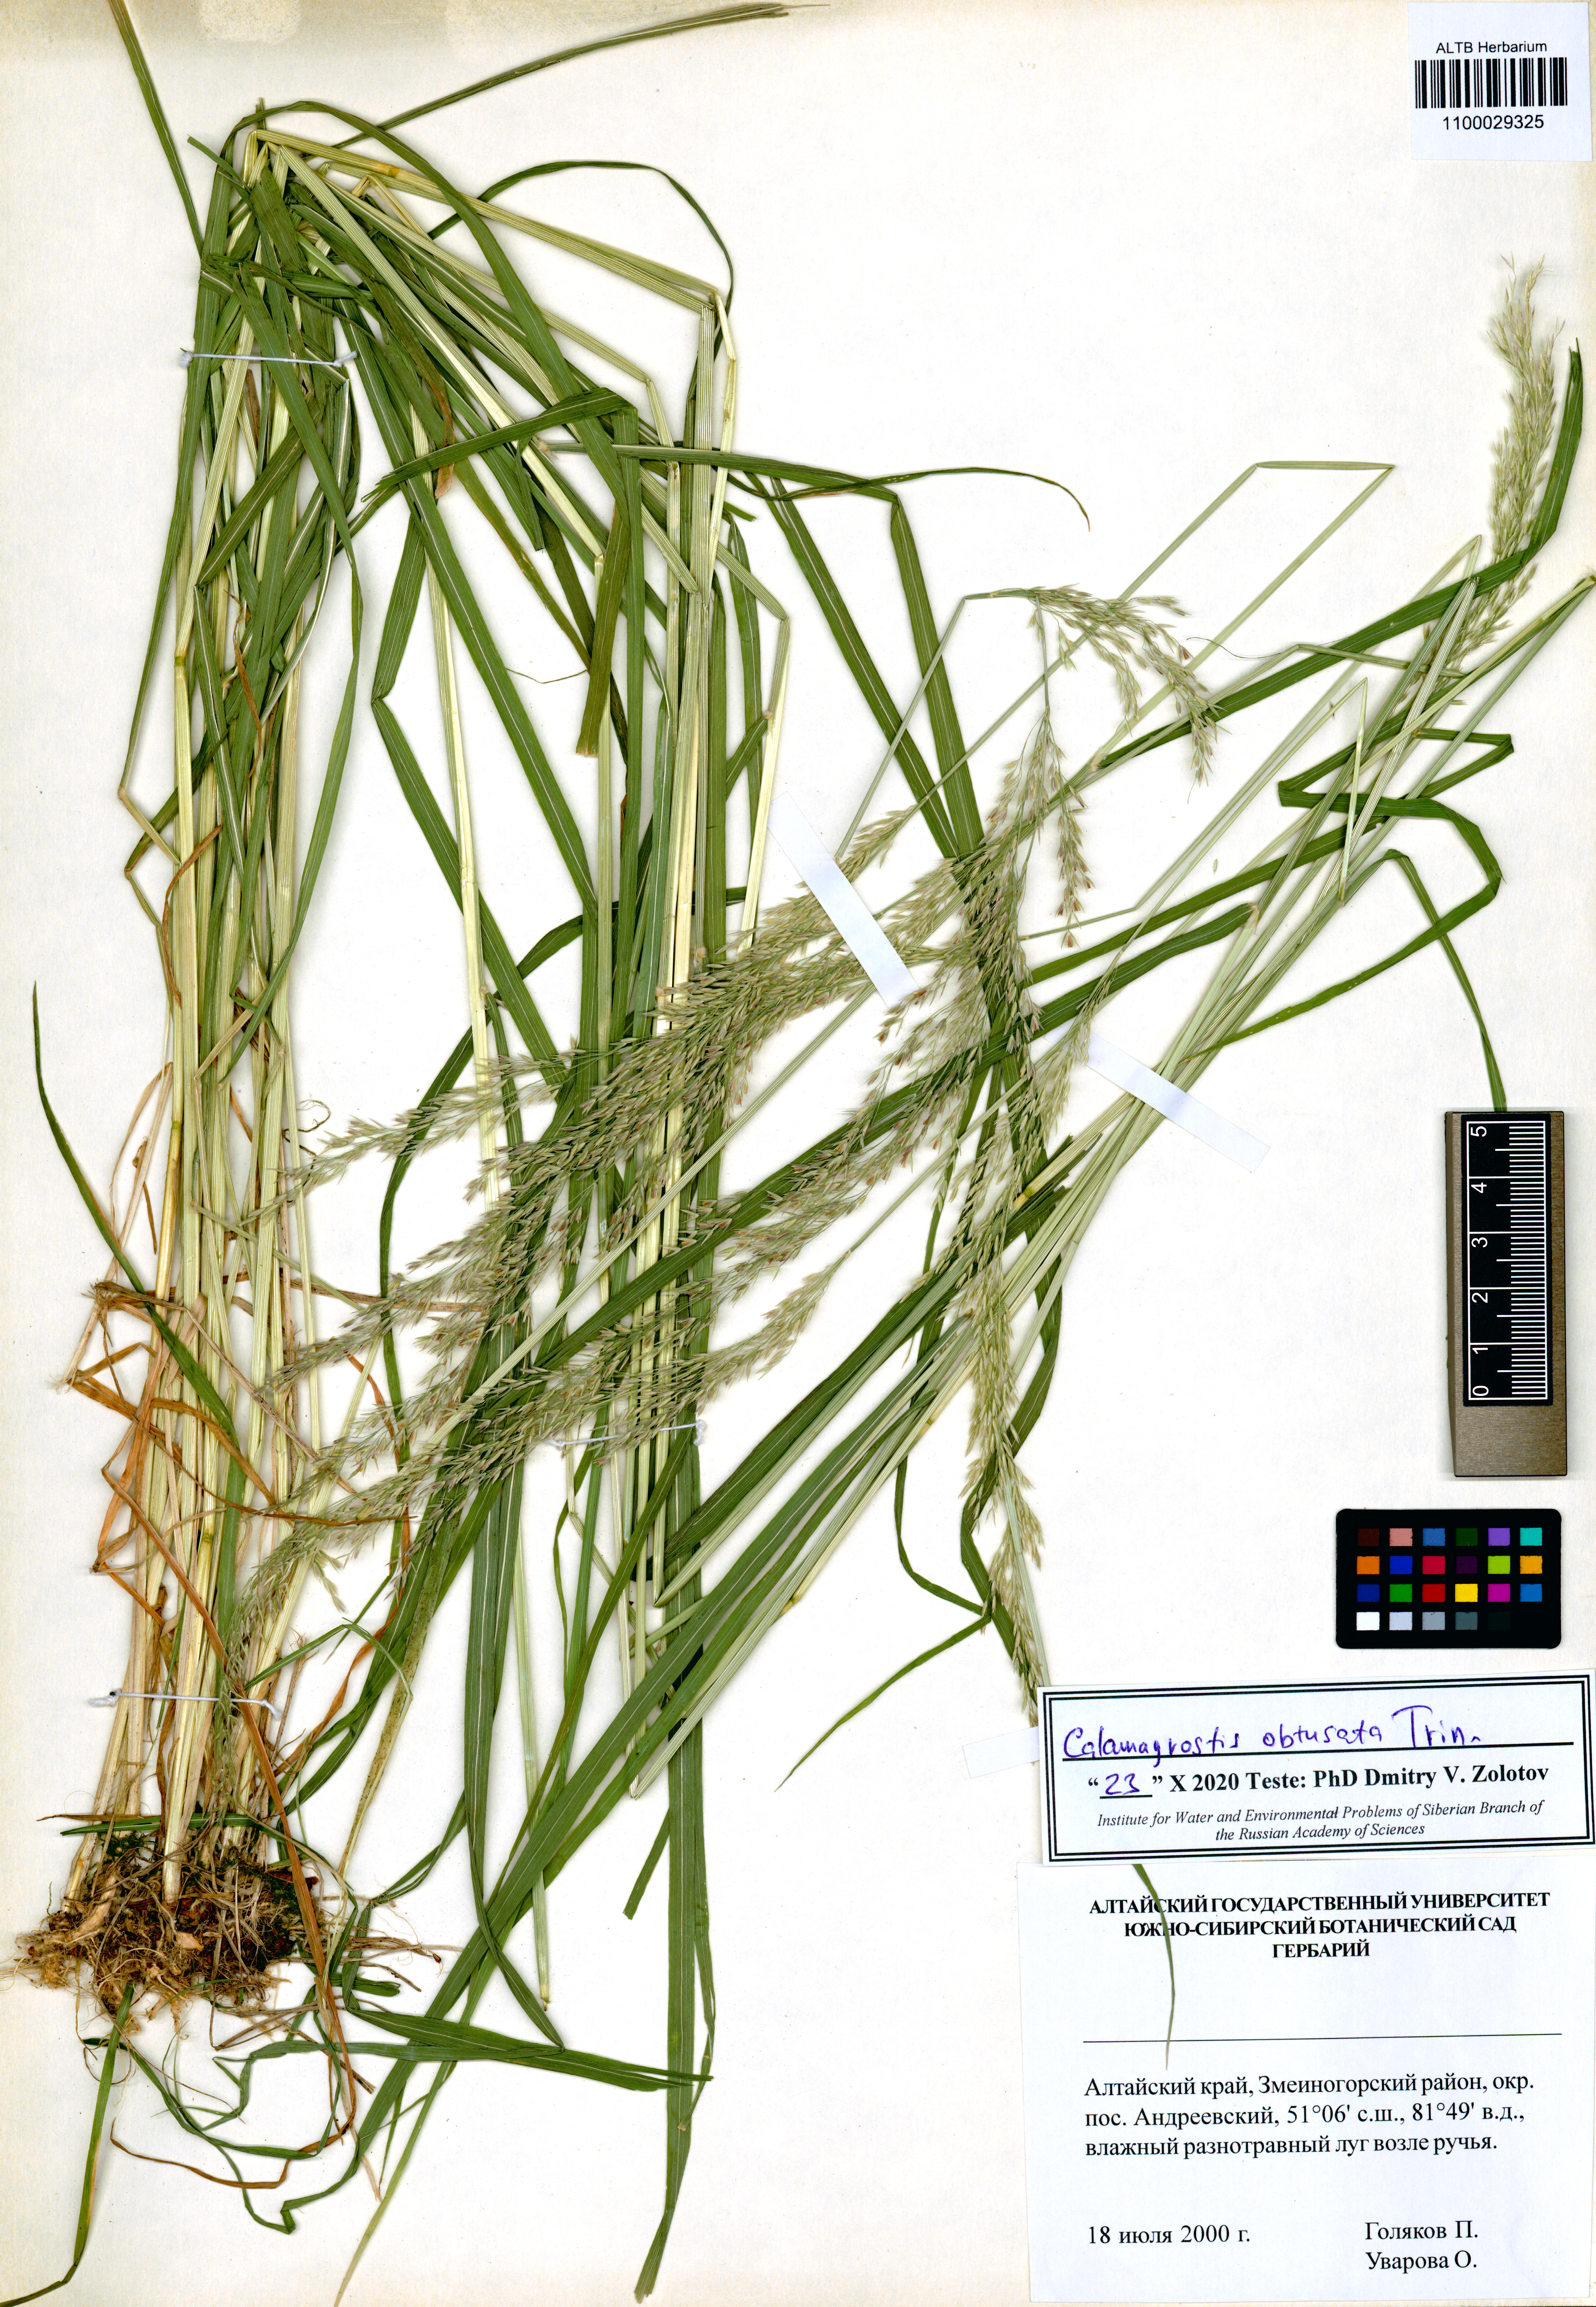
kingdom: Plantae
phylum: Tracheophyta
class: Liliopsida
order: Poales
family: Poaceae
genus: Calamagrostis
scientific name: Calamagrostis obtusata
